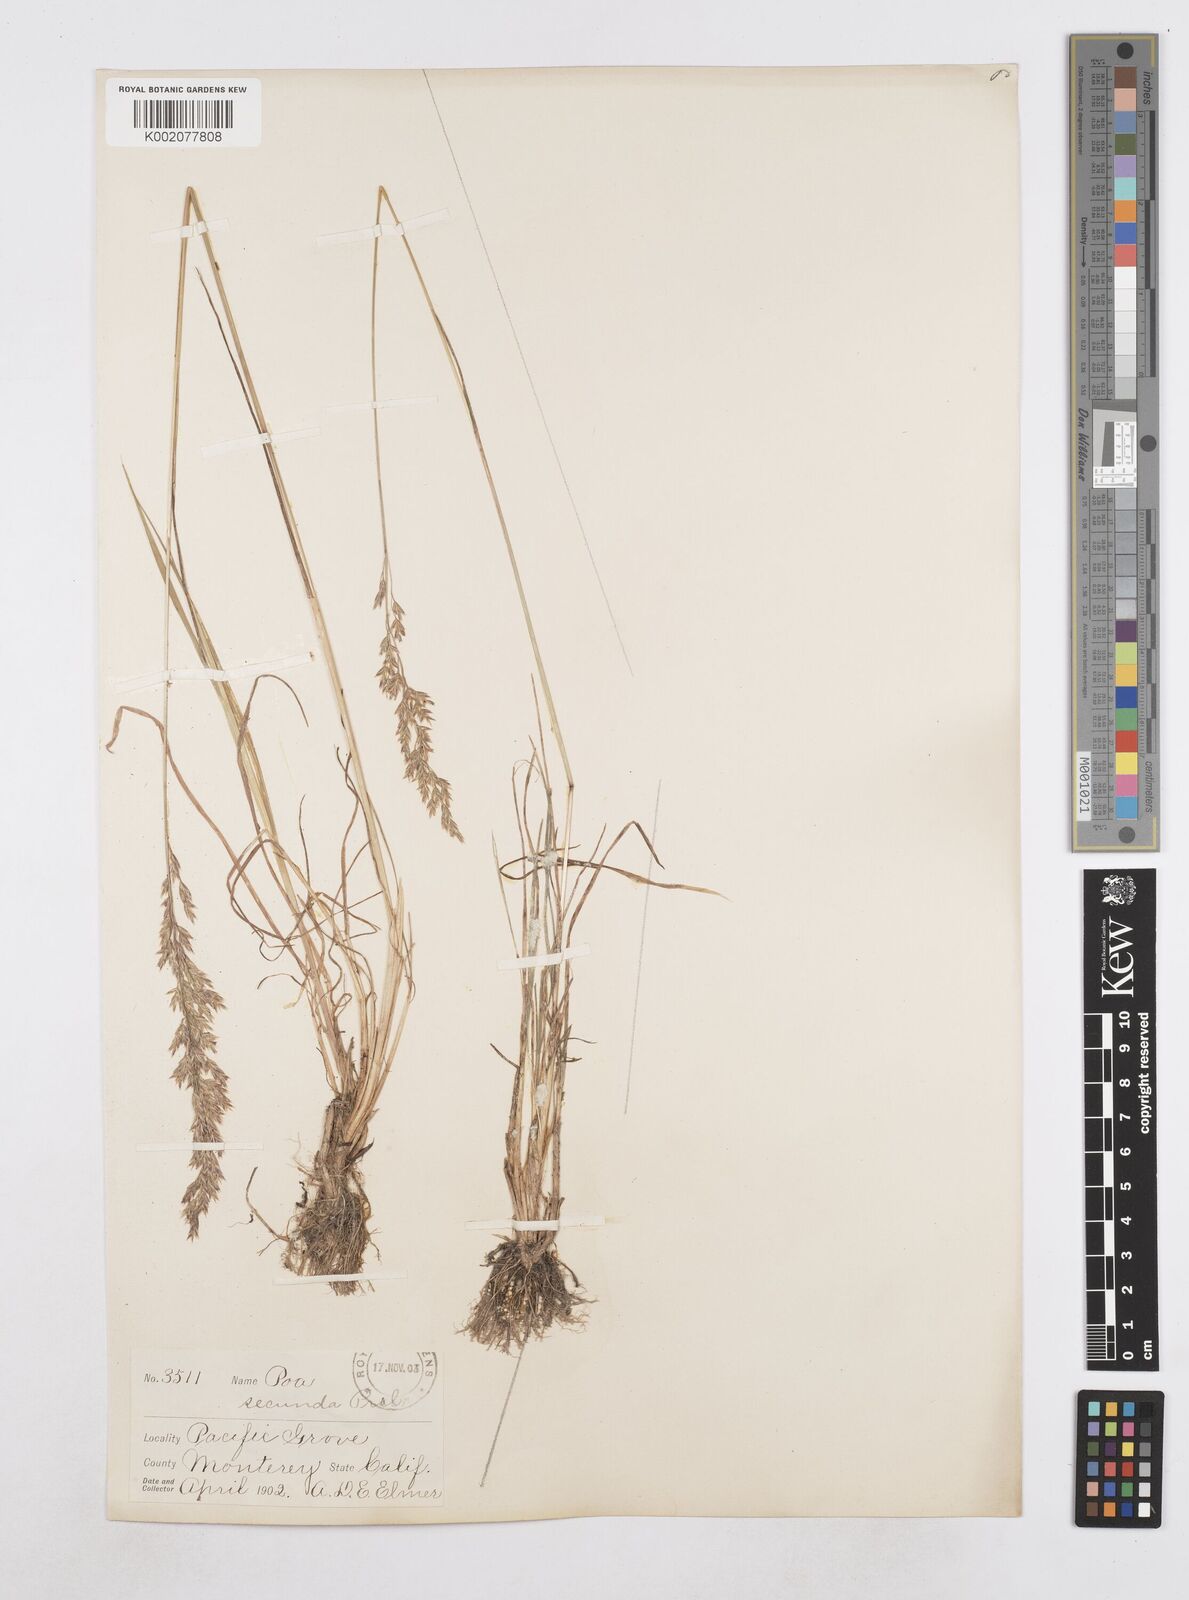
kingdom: Plantae
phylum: Tracheophyta
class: Liliopsida
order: Poales
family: Poaceae
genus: Poa
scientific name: Poa secunda
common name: Sandberg bluegrass
